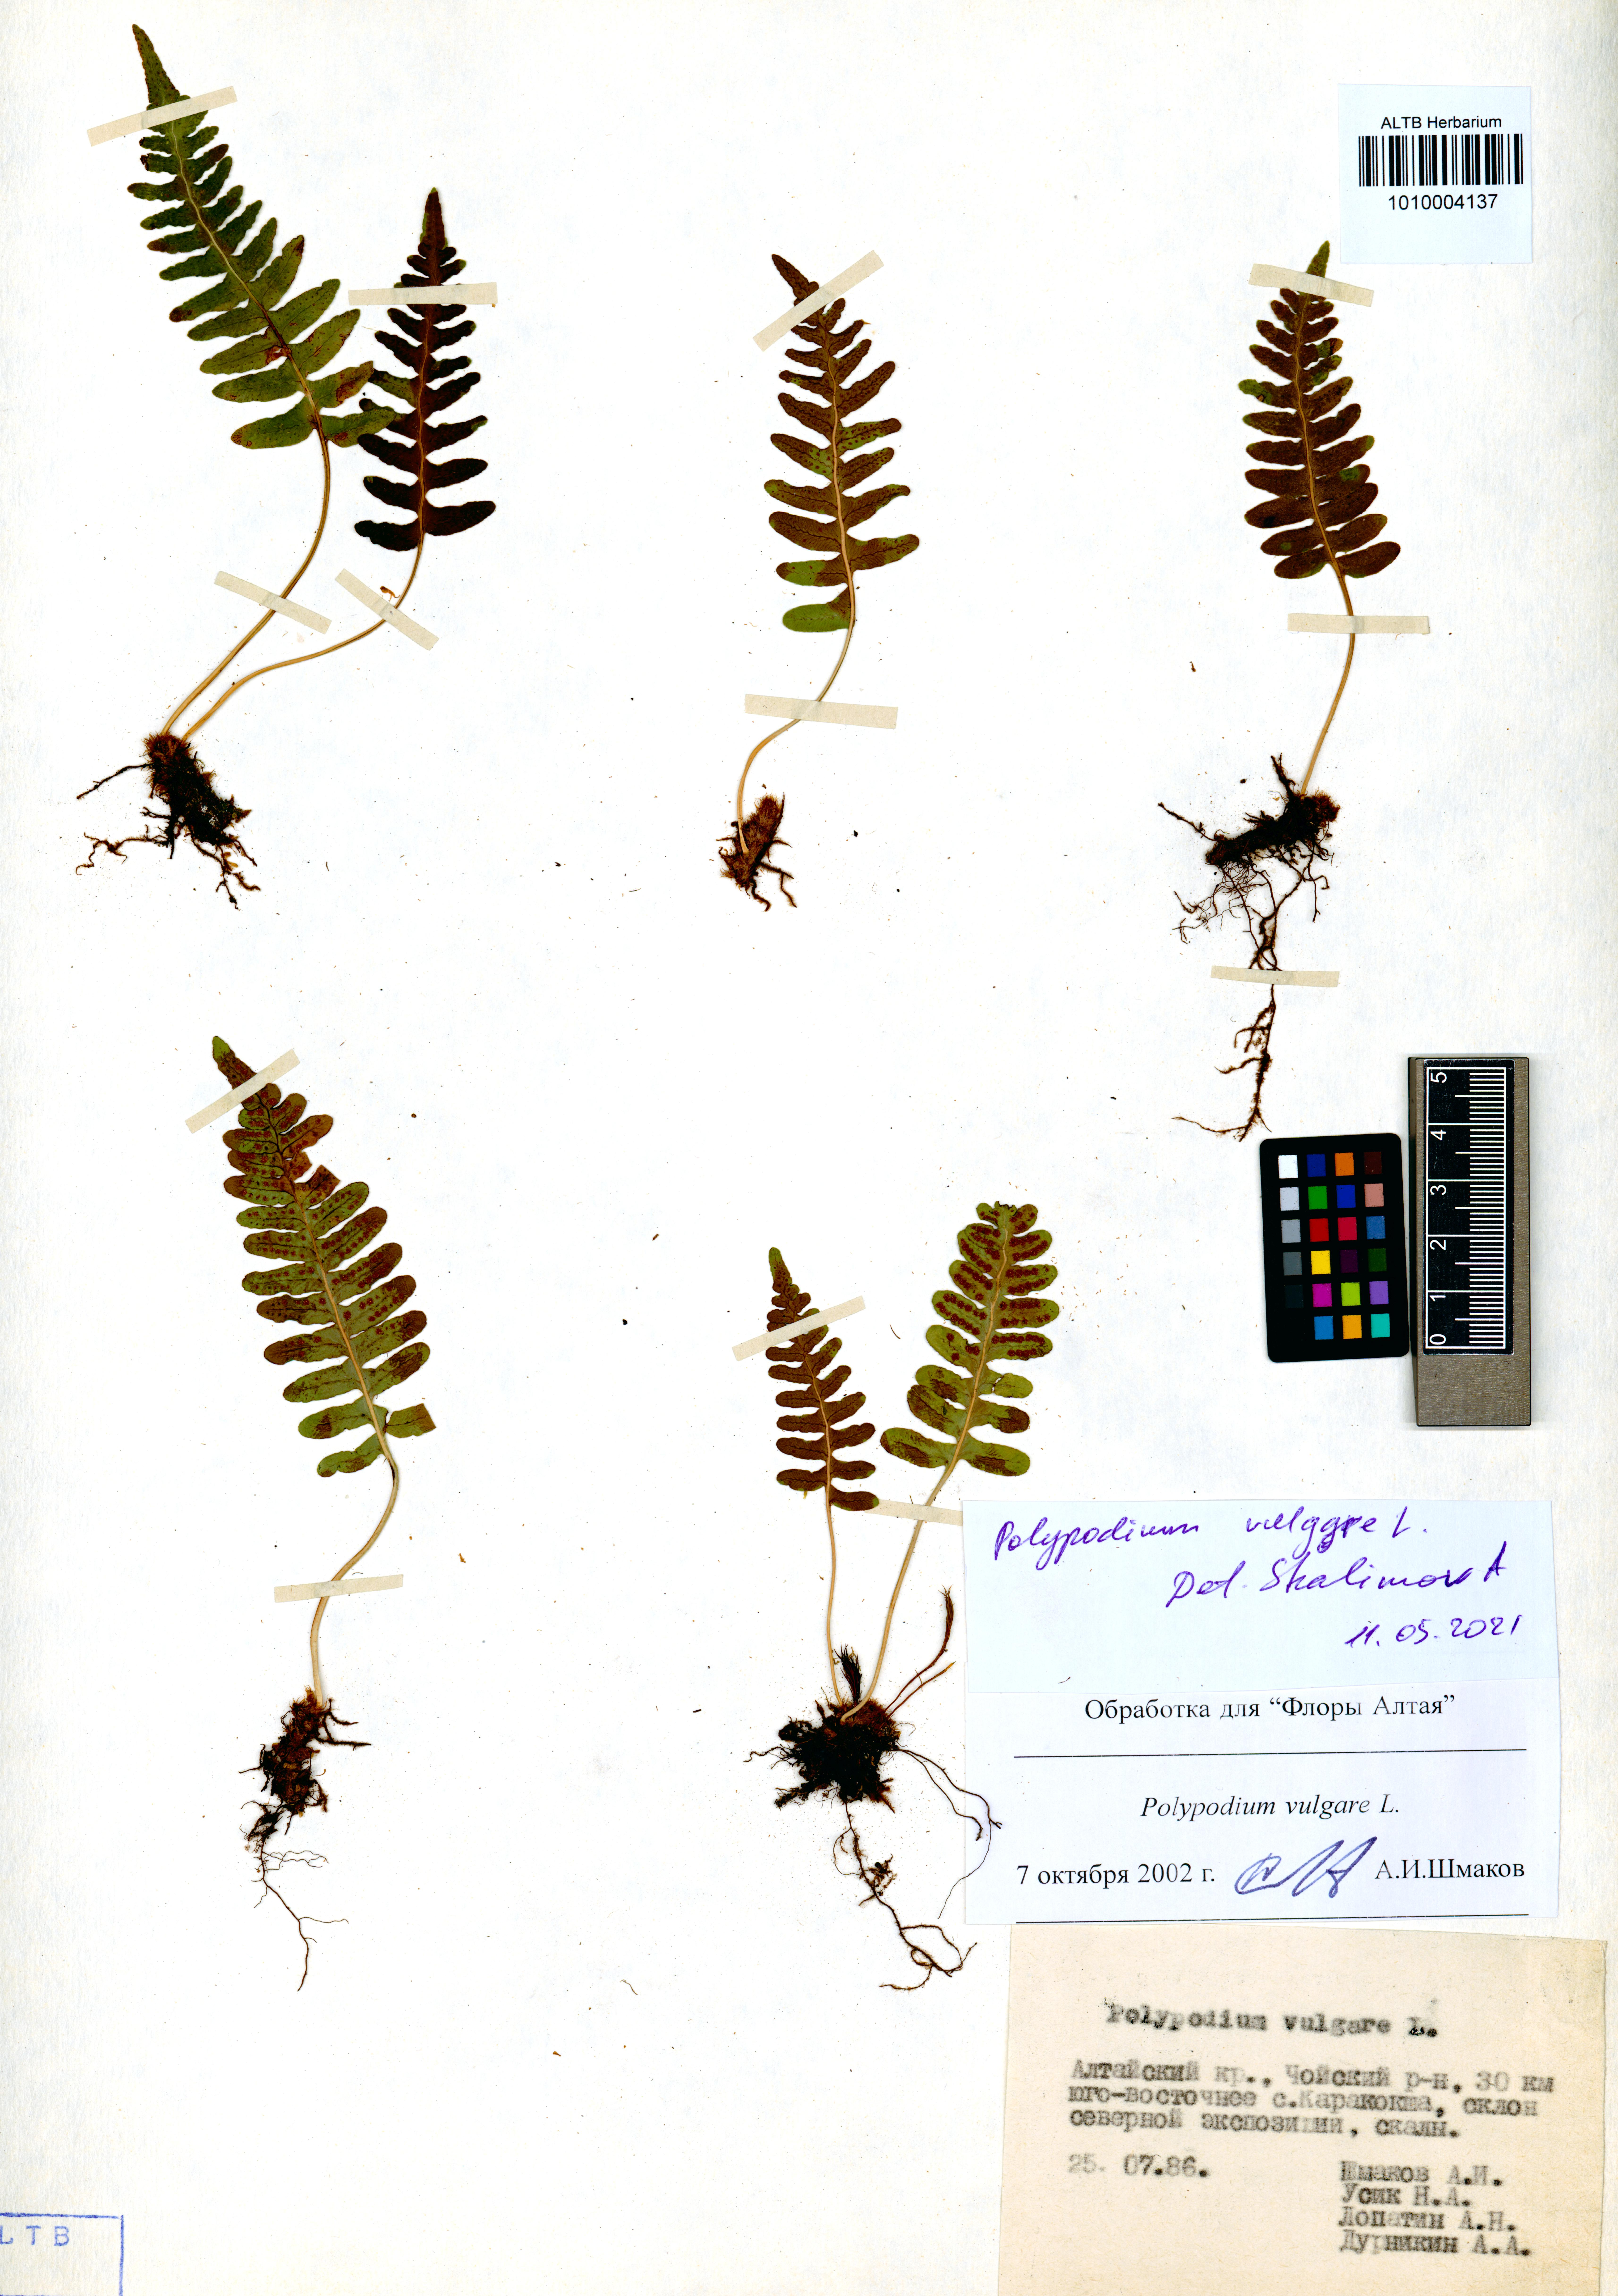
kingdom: Plantae
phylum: Tracheophyta
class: Polypodiopsida
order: Polypodiales
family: Polypodiaceae
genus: Polypodium
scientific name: Polypodium vulgare
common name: Common polypody
